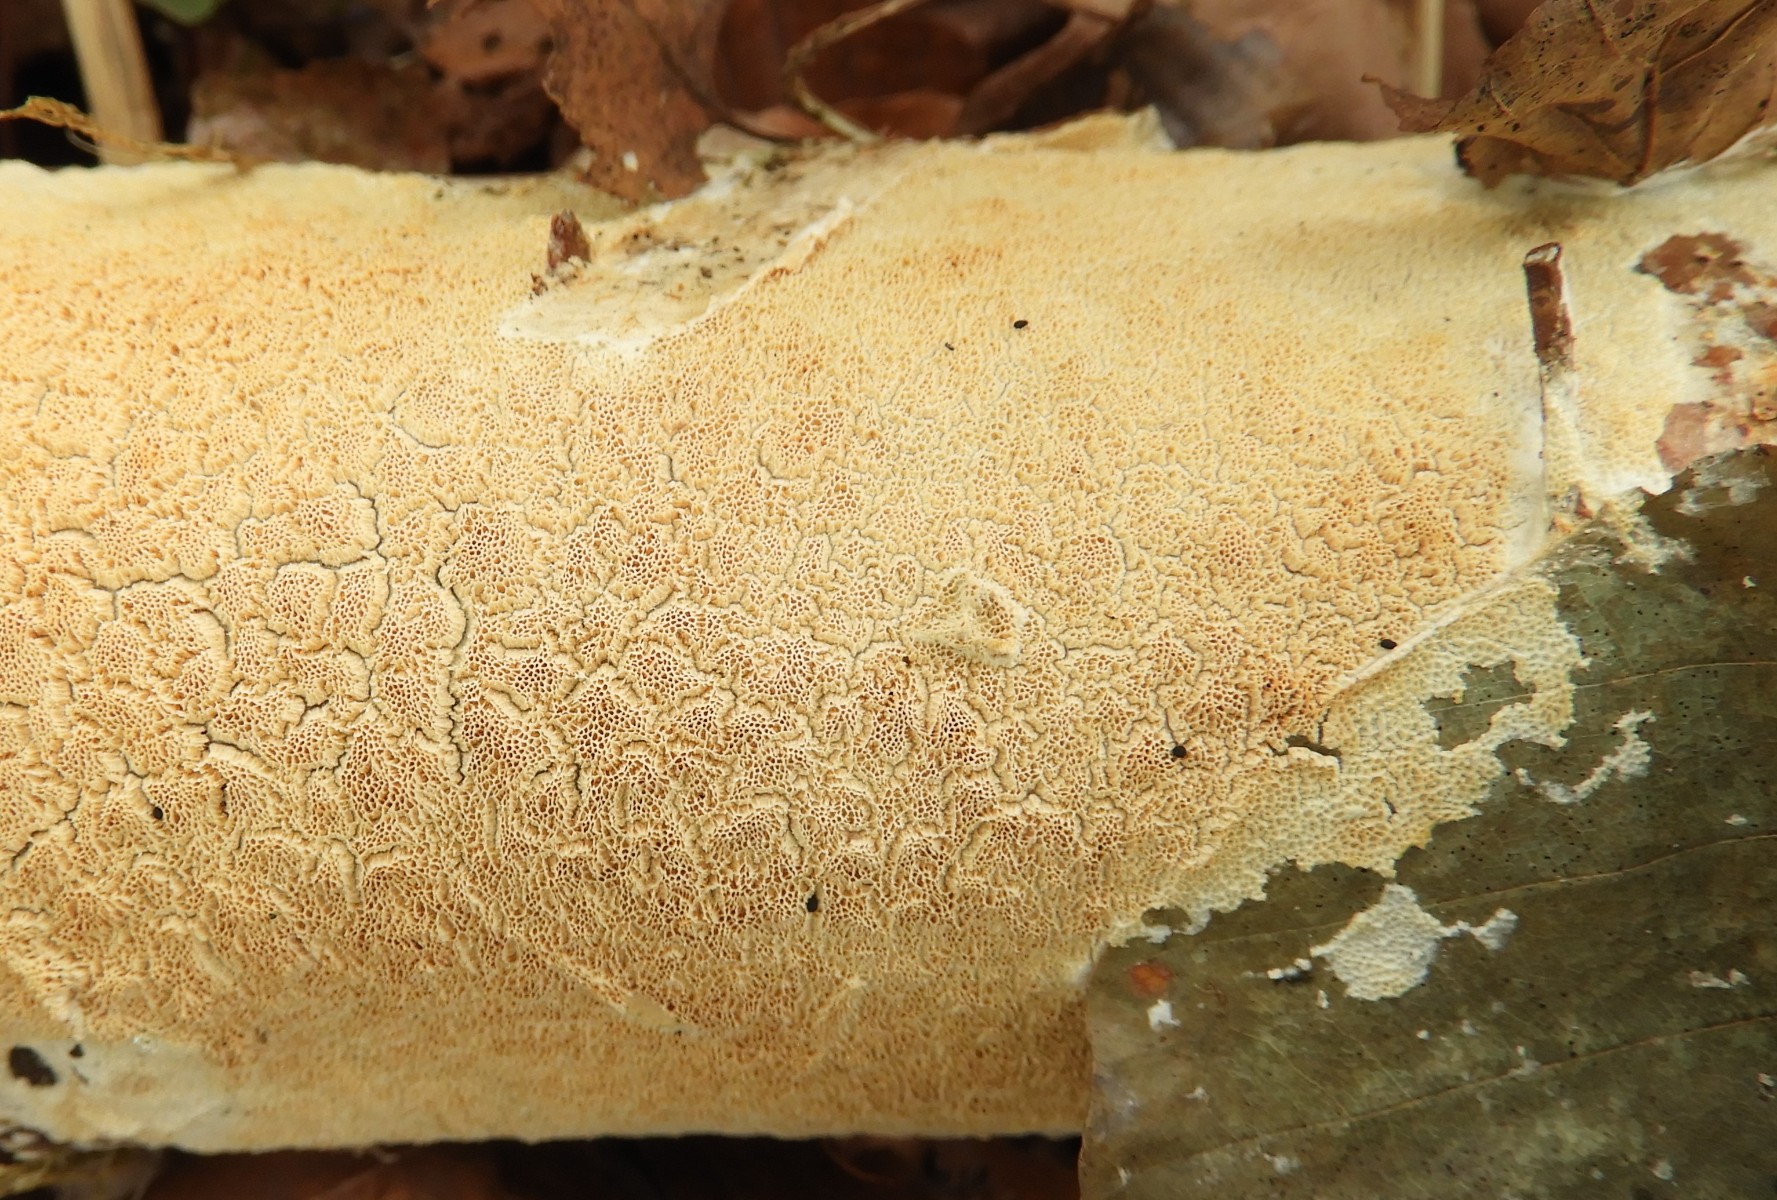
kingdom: Fungi
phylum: Basidiomycota
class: Agaricomycetes
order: Hymenochaetales
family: Schizoporaceae
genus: Xylodon
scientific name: Xylodon subtropicus
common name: labyrint-tandsvamp
